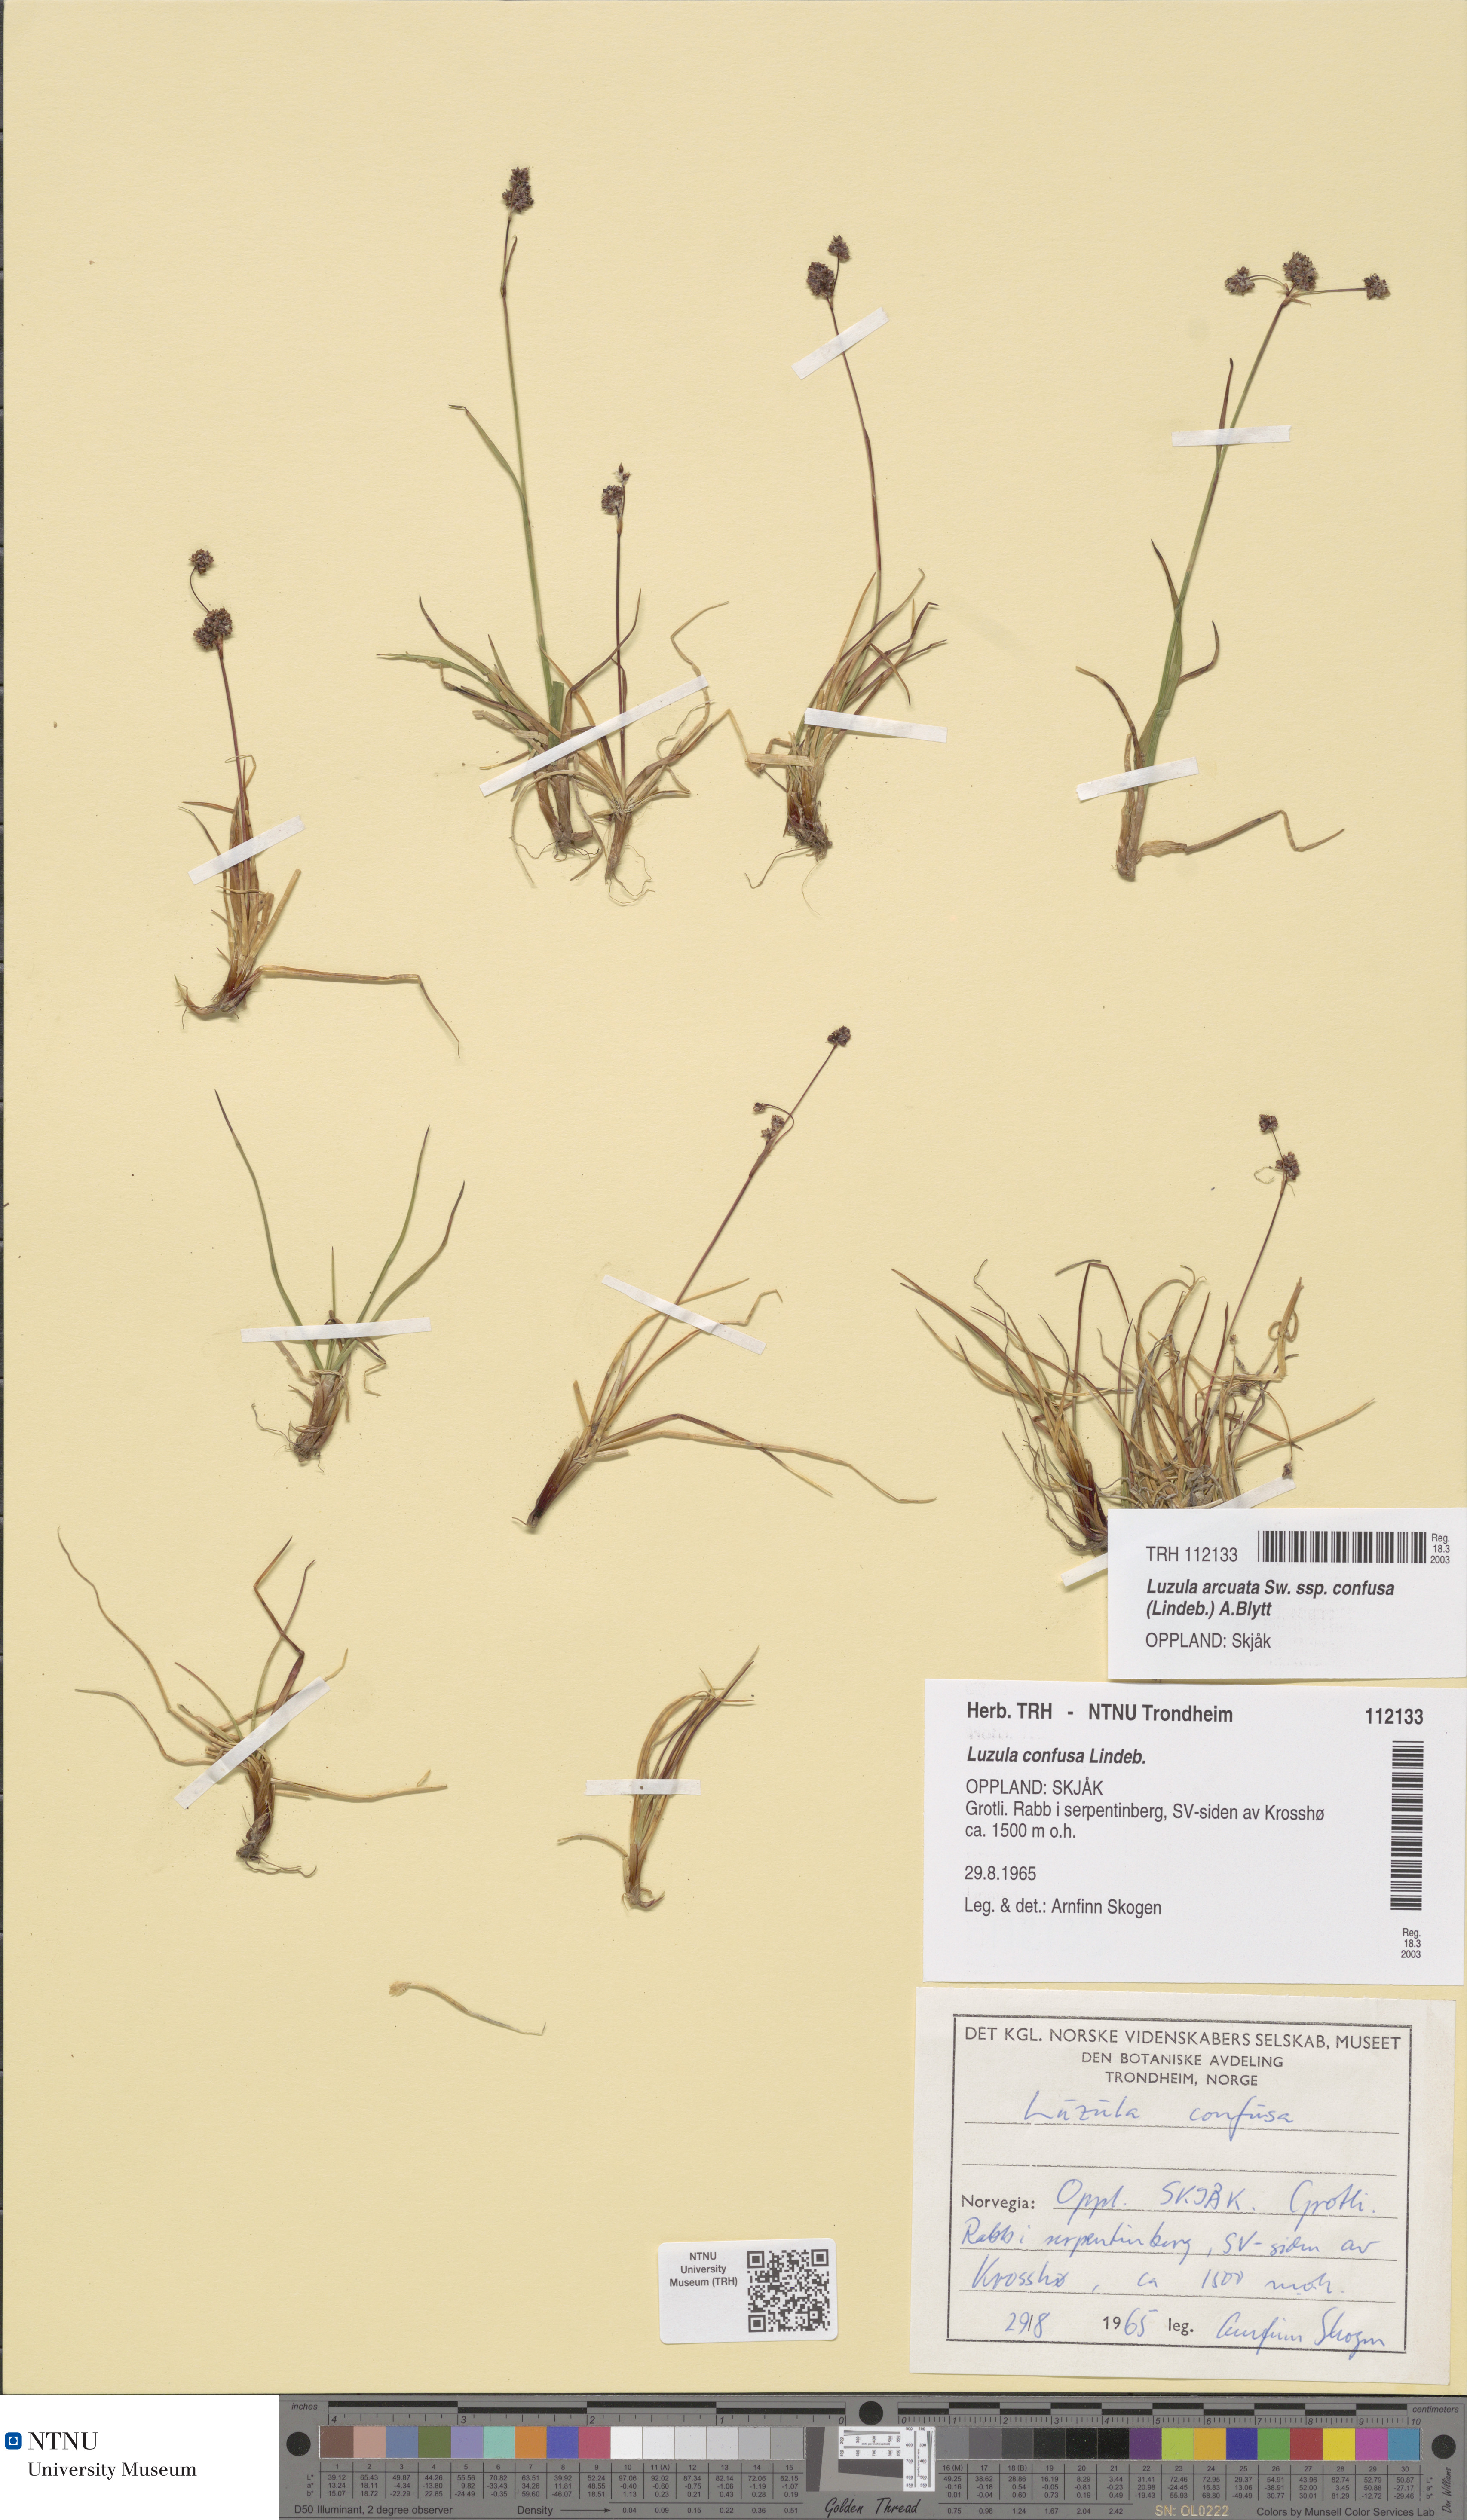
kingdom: Plantae
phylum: Tracheophyta
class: Liliopsida
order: Poales
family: Juncaceae
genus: Luzula
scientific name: Luzula confusa
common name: Northern wood rush
